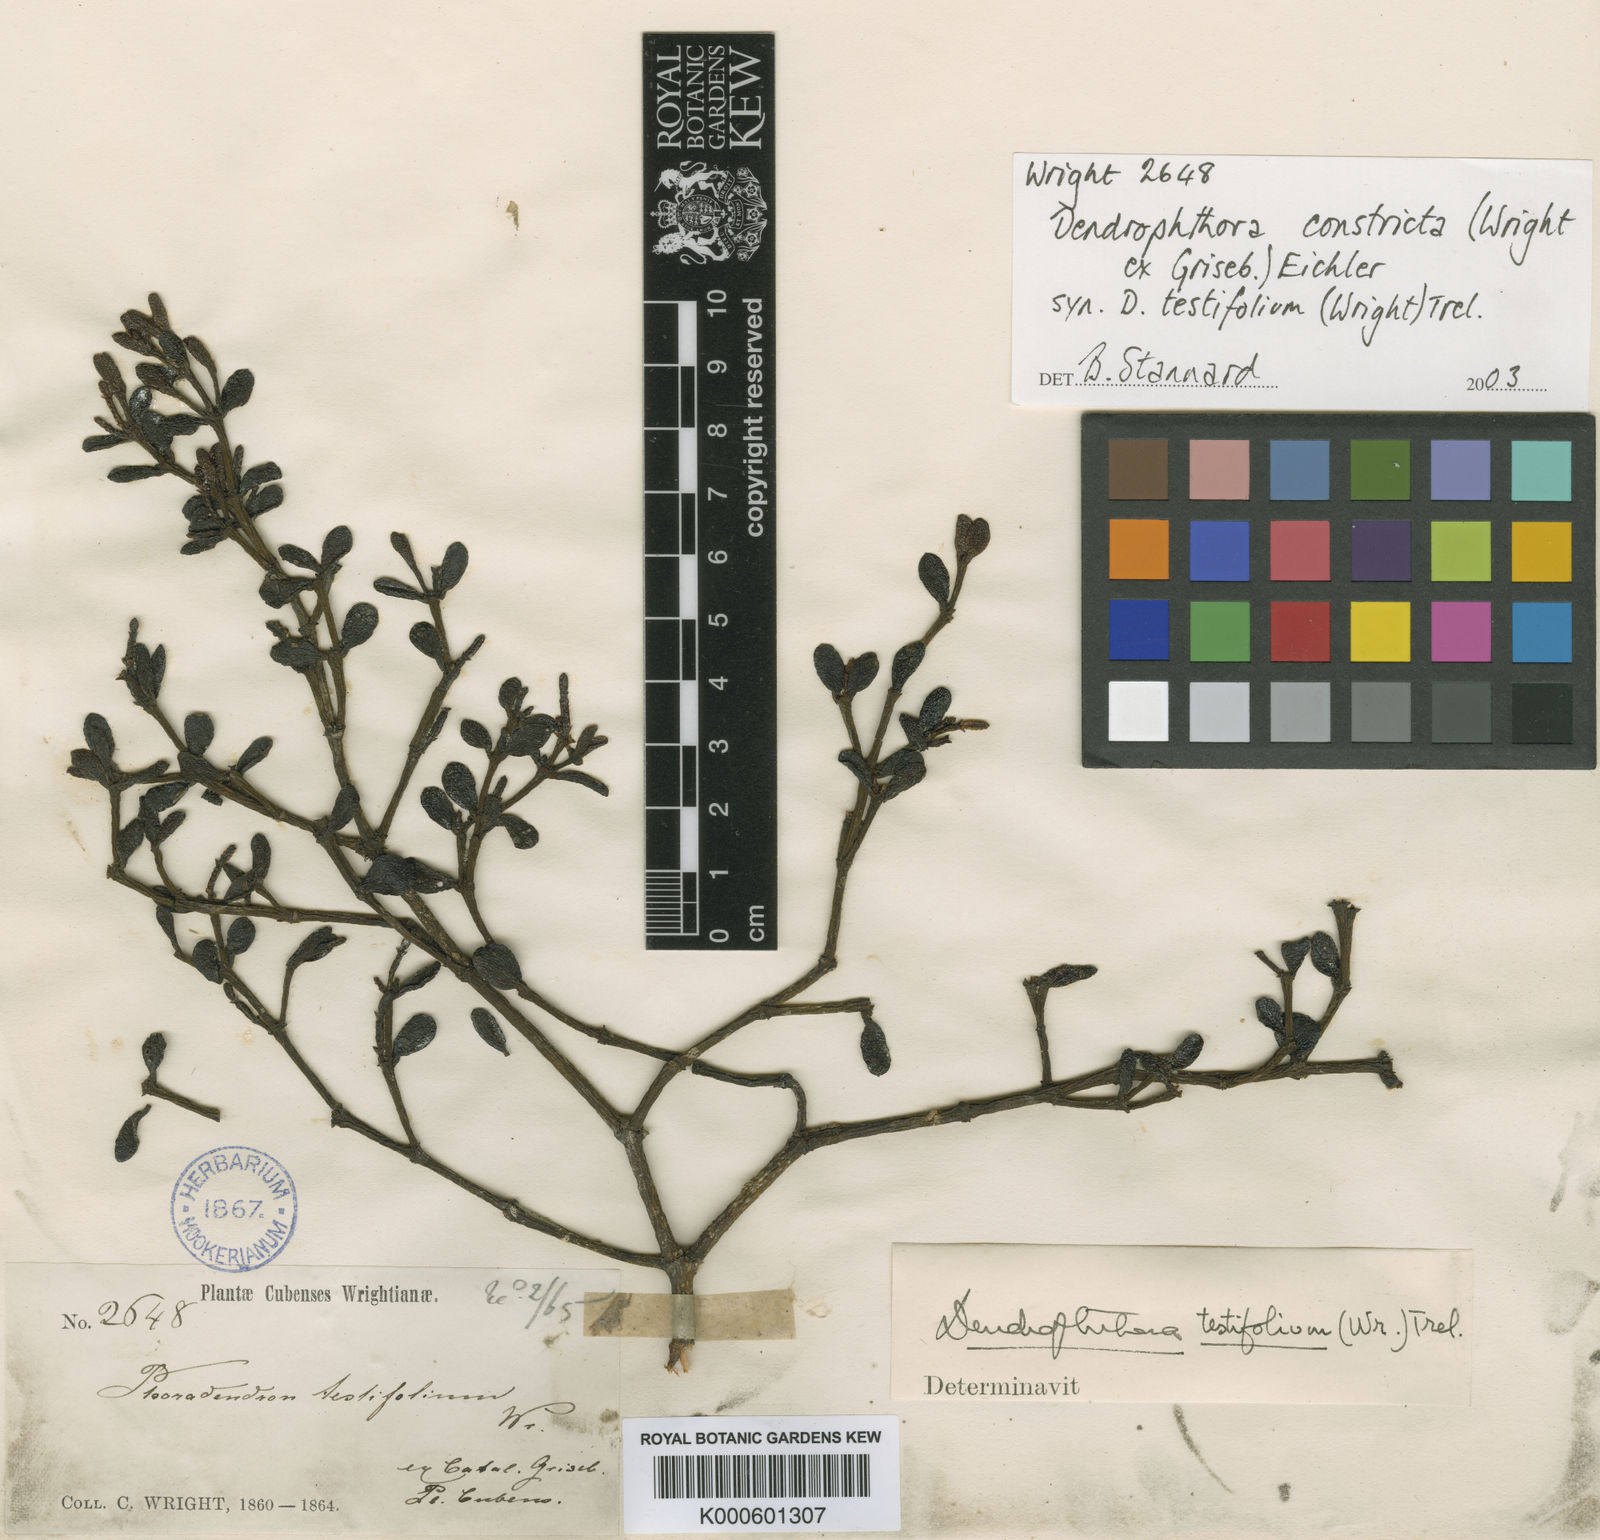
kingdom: Plantae
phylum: Tracheophyta
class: Magnoliopsida
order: Santalales
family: Viscaceae
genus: Dendrophthora
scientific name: Dendrophthora constricta
